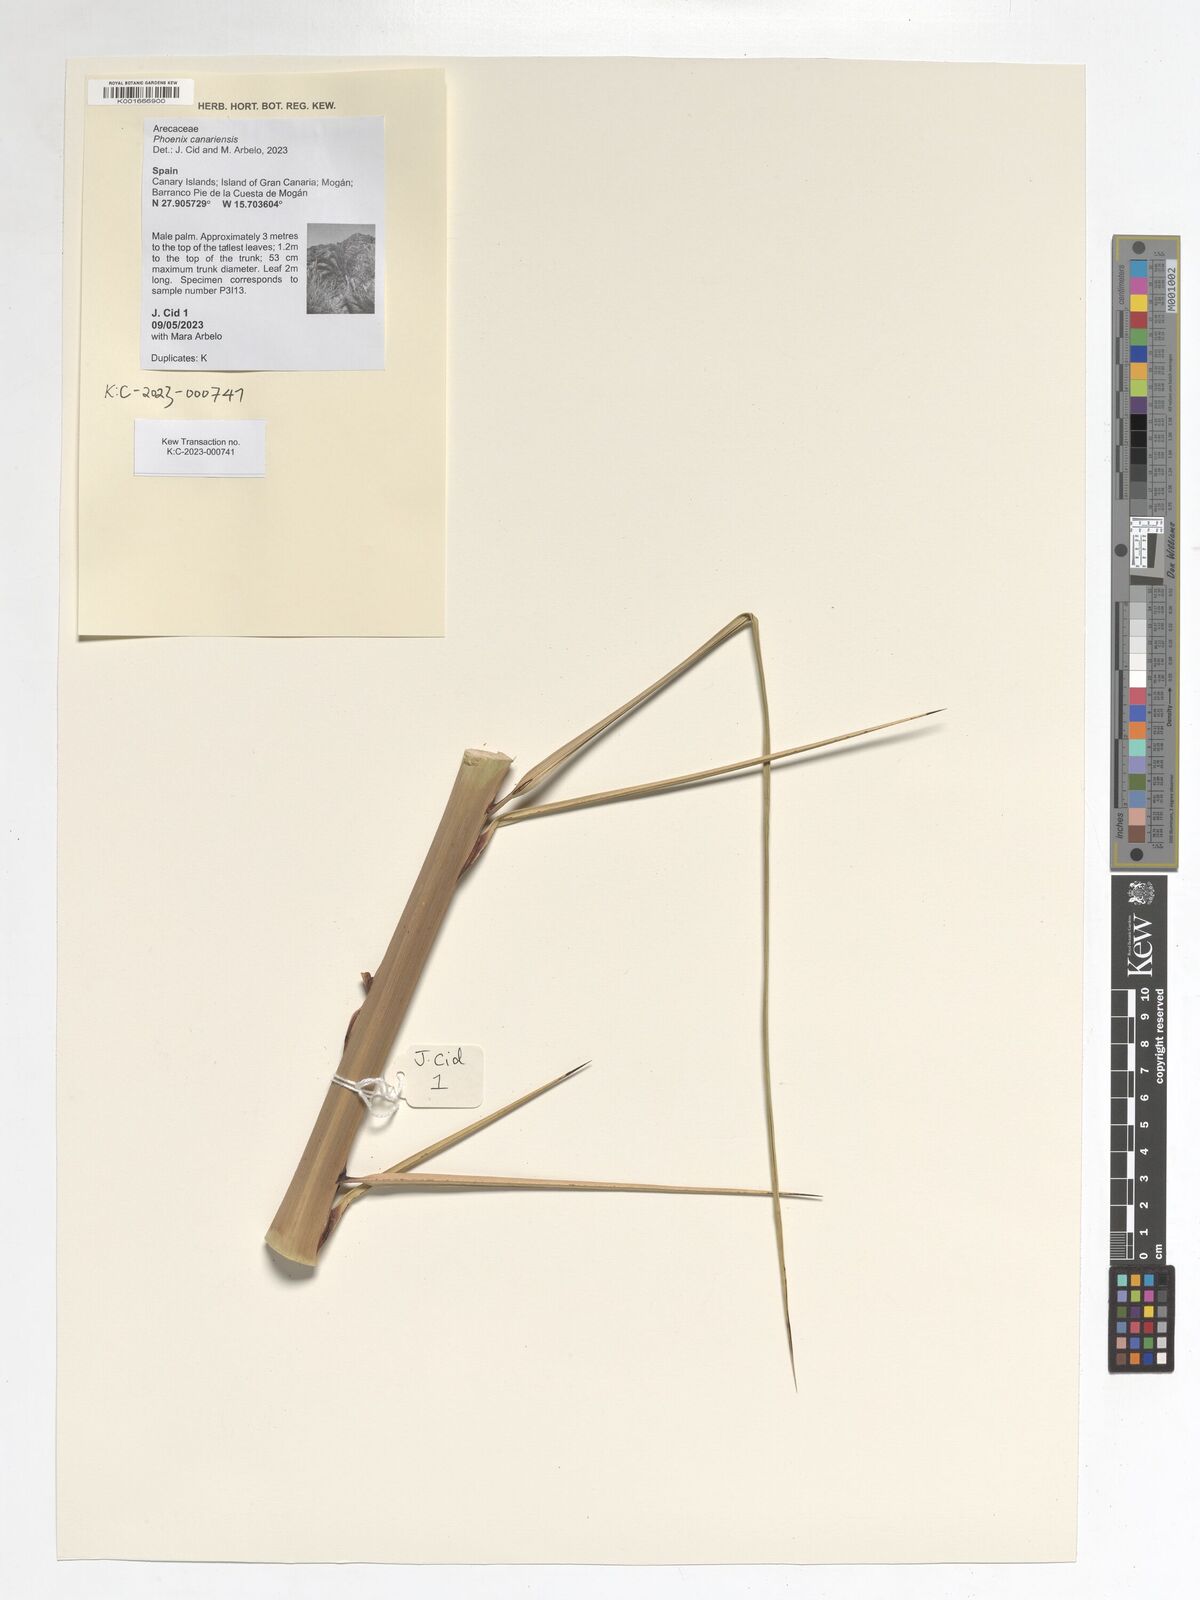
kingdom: Plantae
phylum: Tracheophyta
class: Liliopsida
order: Arecales
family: Arecaceae
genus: Phoenix
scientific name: Phoenix canariensis
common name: Canary island date palm
